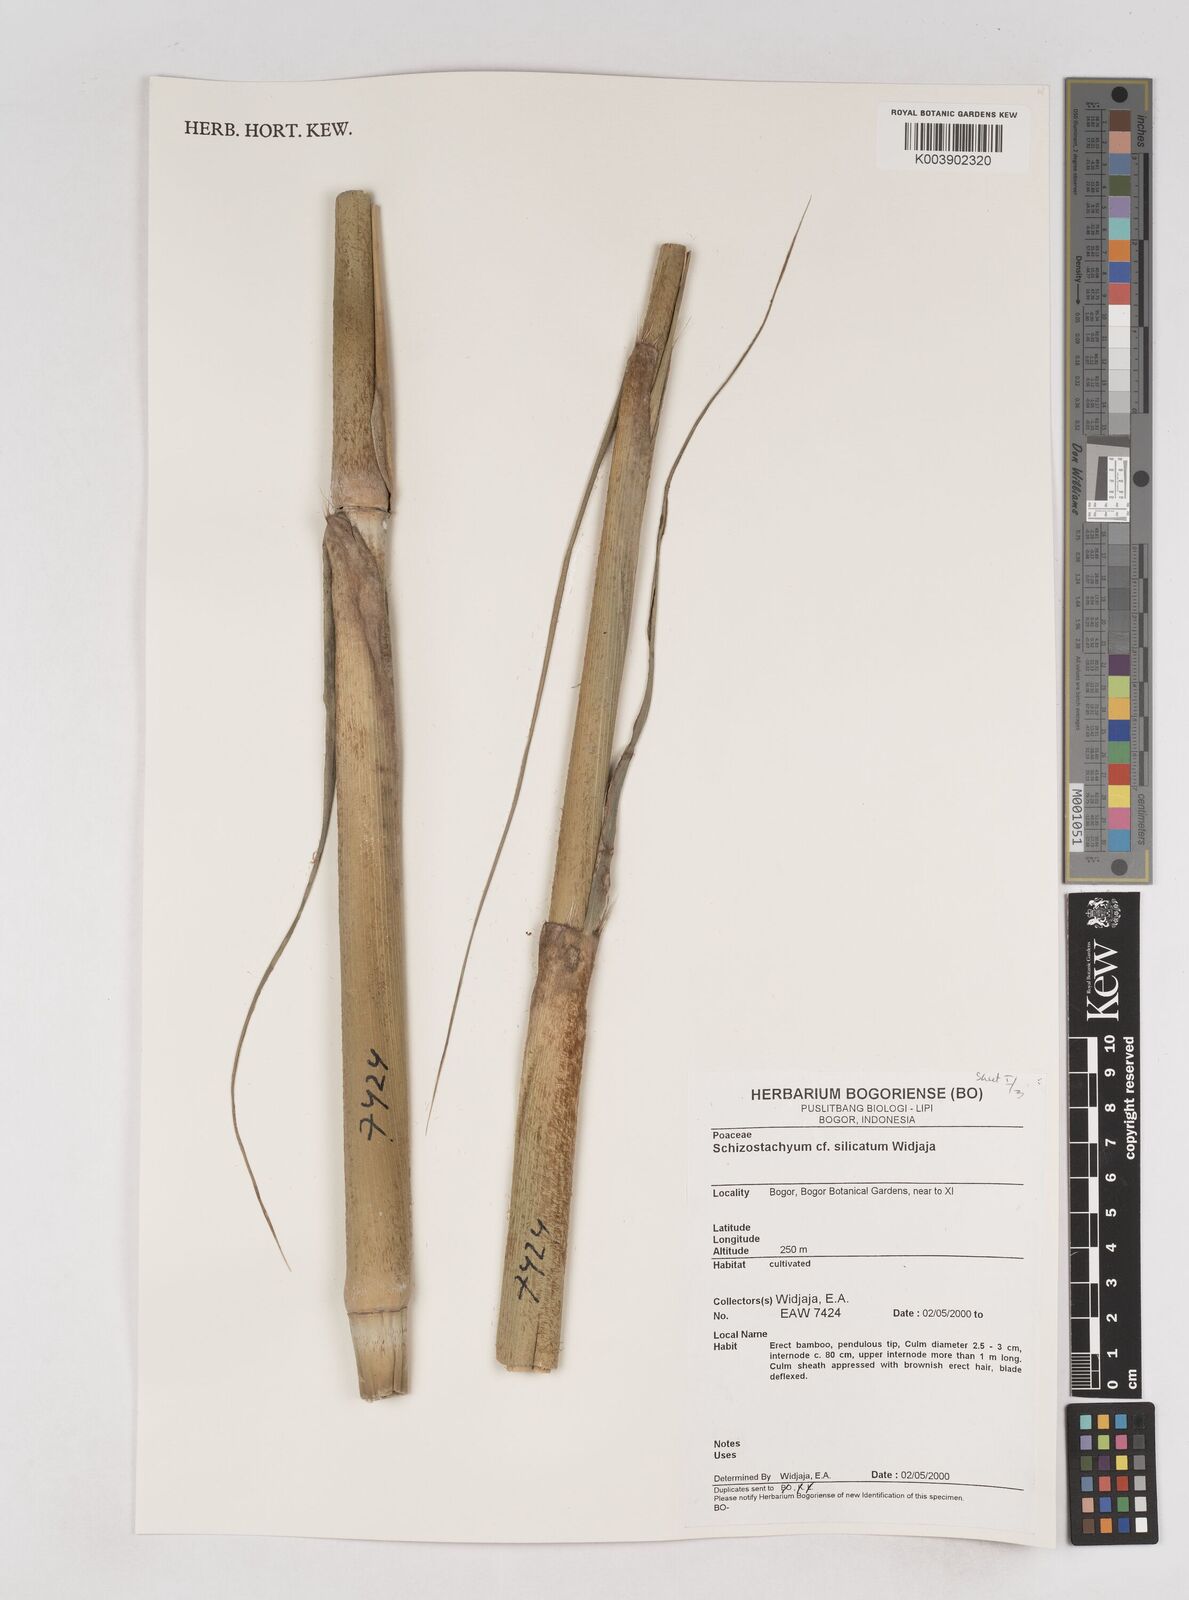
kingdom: Plantae
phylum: Tracheophyta
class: Liliopsida
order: Poales
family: Poaceae
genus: Schizostachyum
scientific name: Schizostachyum silicatum
